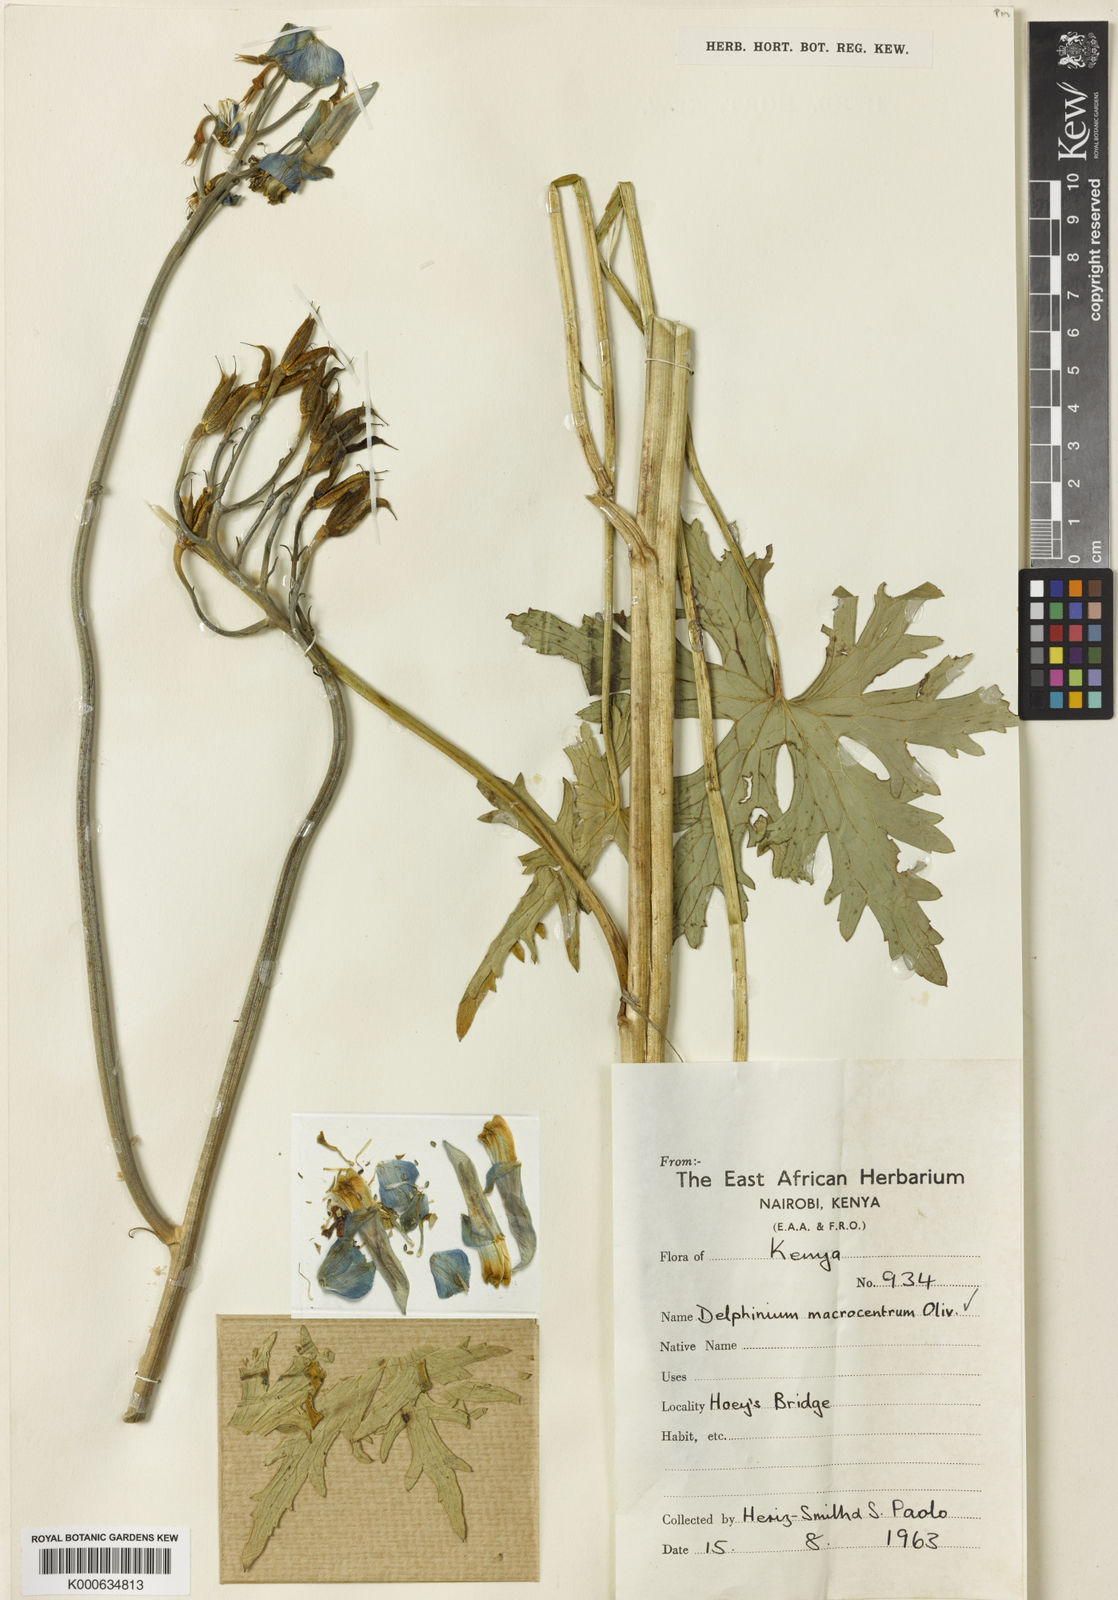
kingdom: Plantae
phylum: Tracheophyta
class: Magnoliopsida
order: Ranunculales
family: Ranunculaceae
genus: Delphinium
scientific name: Delphinium macrocentrum
